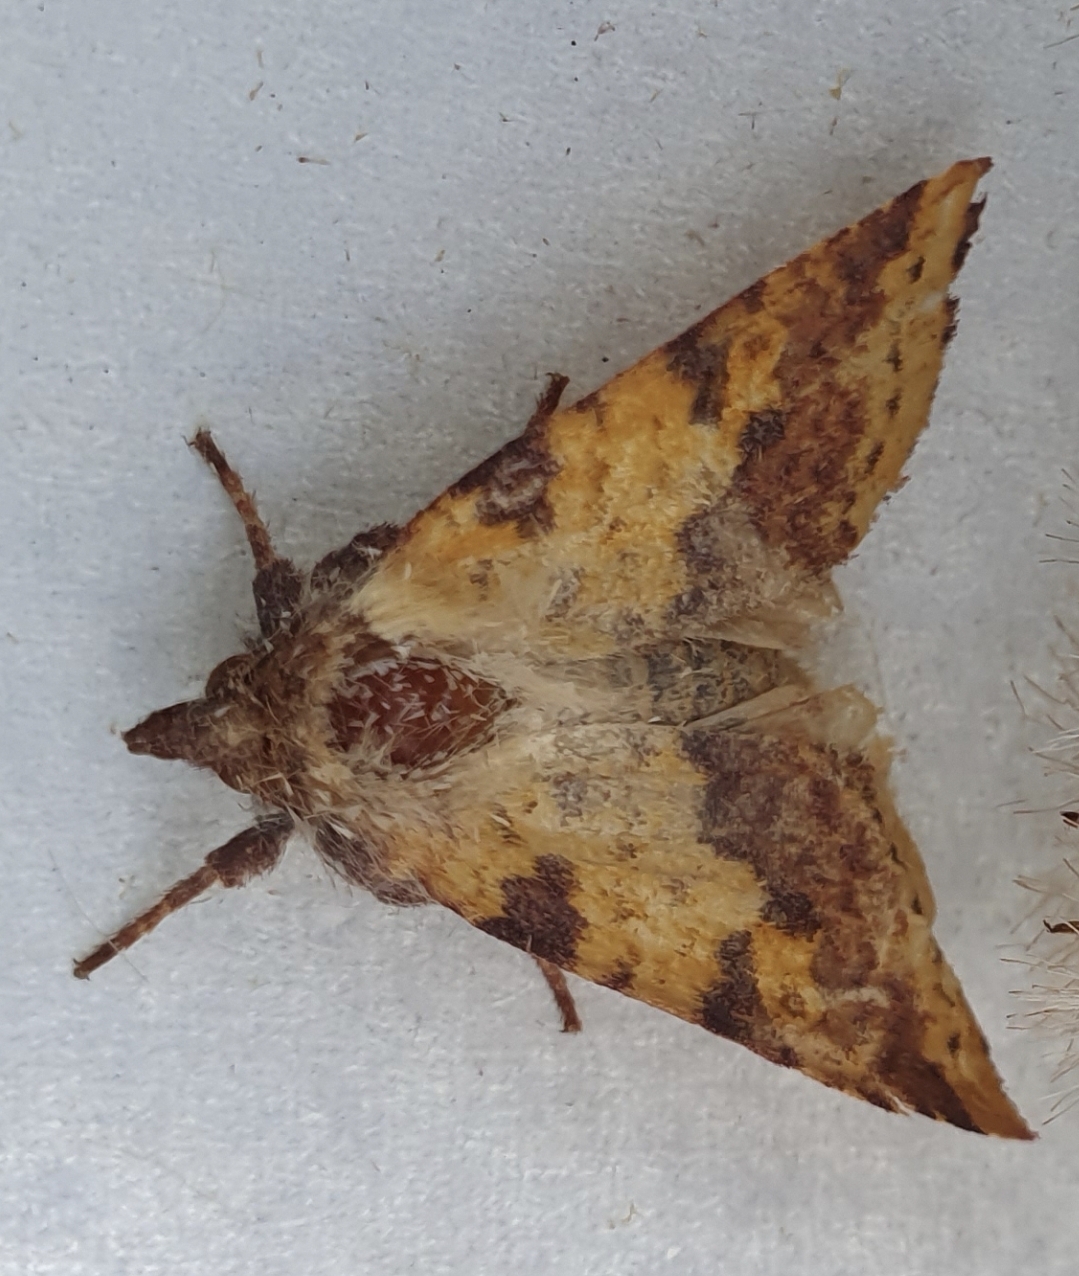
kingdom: Animalia
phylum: Arthropoda
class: Insecta
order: Lepidoptera
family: Noctuidae
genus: Xanthia
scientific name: Xanthia togata
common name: Toga-septemberugle
